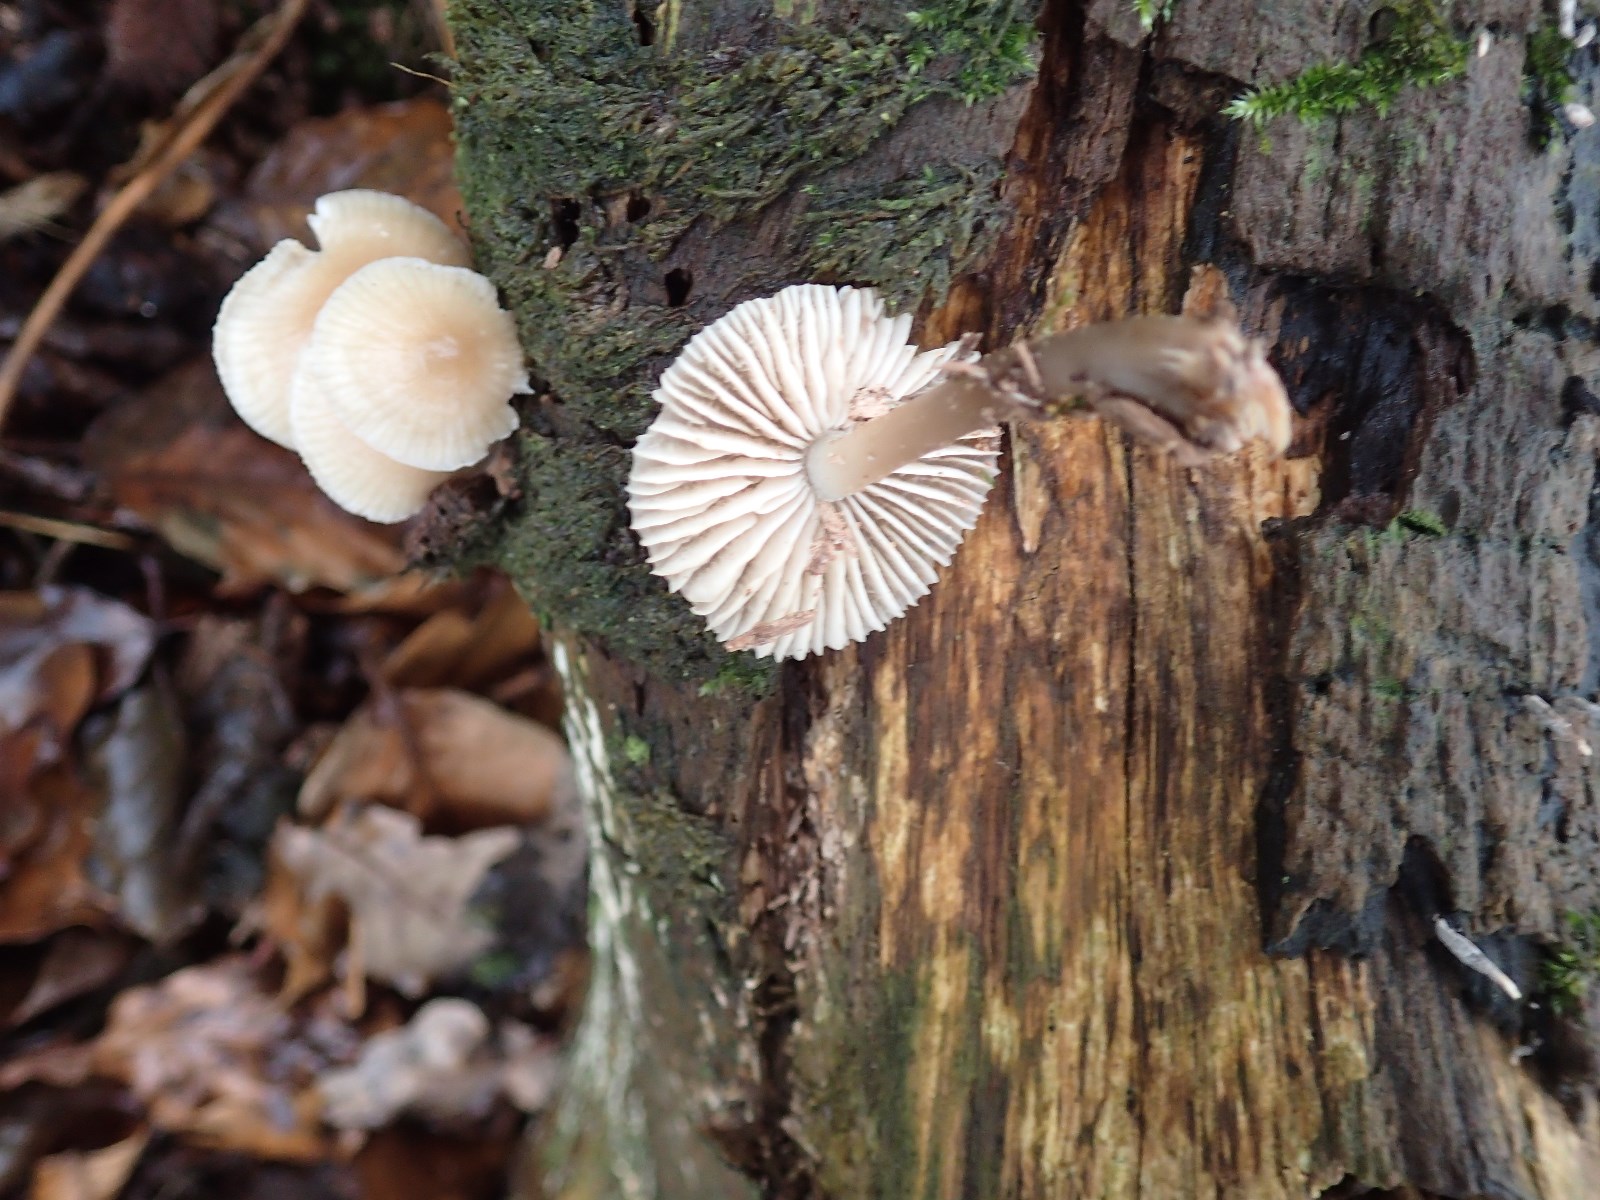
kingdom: Fungi
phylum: Basidiomycota
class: Agaricomycetes
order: Agaricales
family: Mycenaceae
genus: Mycena
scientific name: Mycena galericulata
